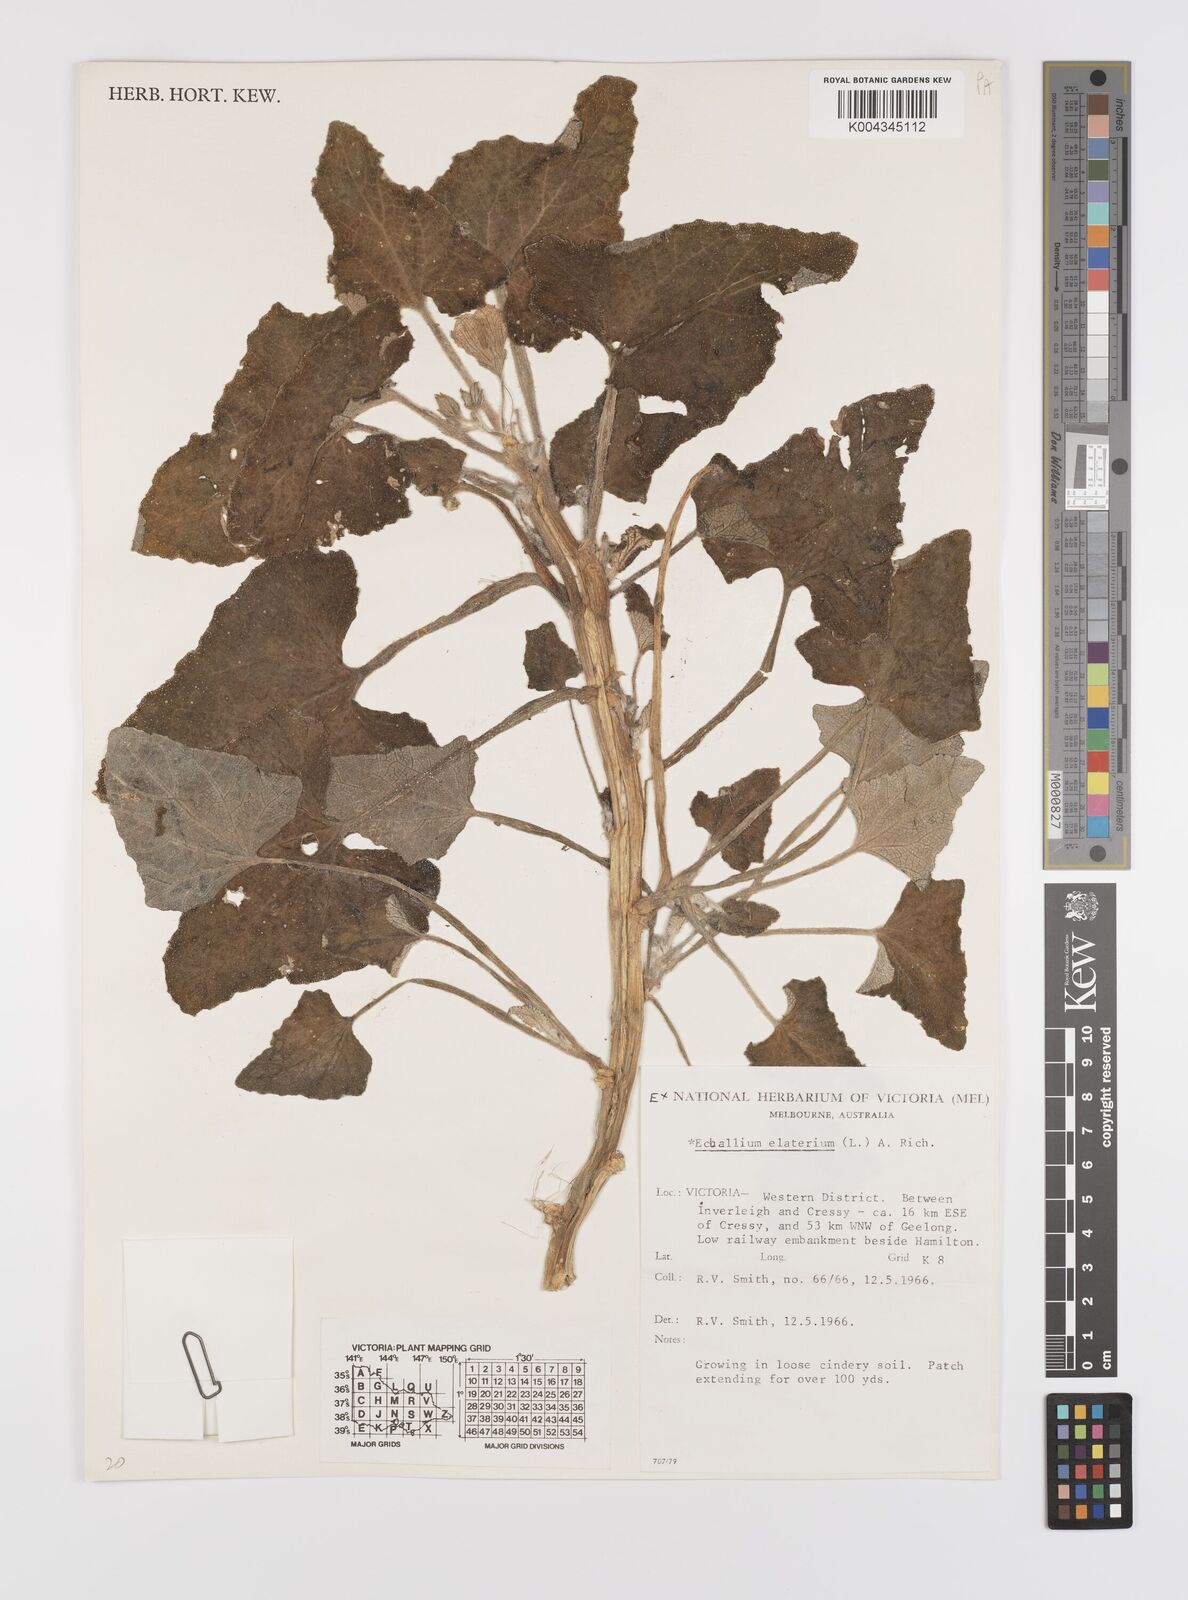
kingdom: Plantae
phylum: Tracheophyta
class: Magnoliopsida
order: Cucurbitales
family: Cucurbitaceae
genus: Ecballium
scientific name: Ecballium elaterium
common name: Squirting cucumber
